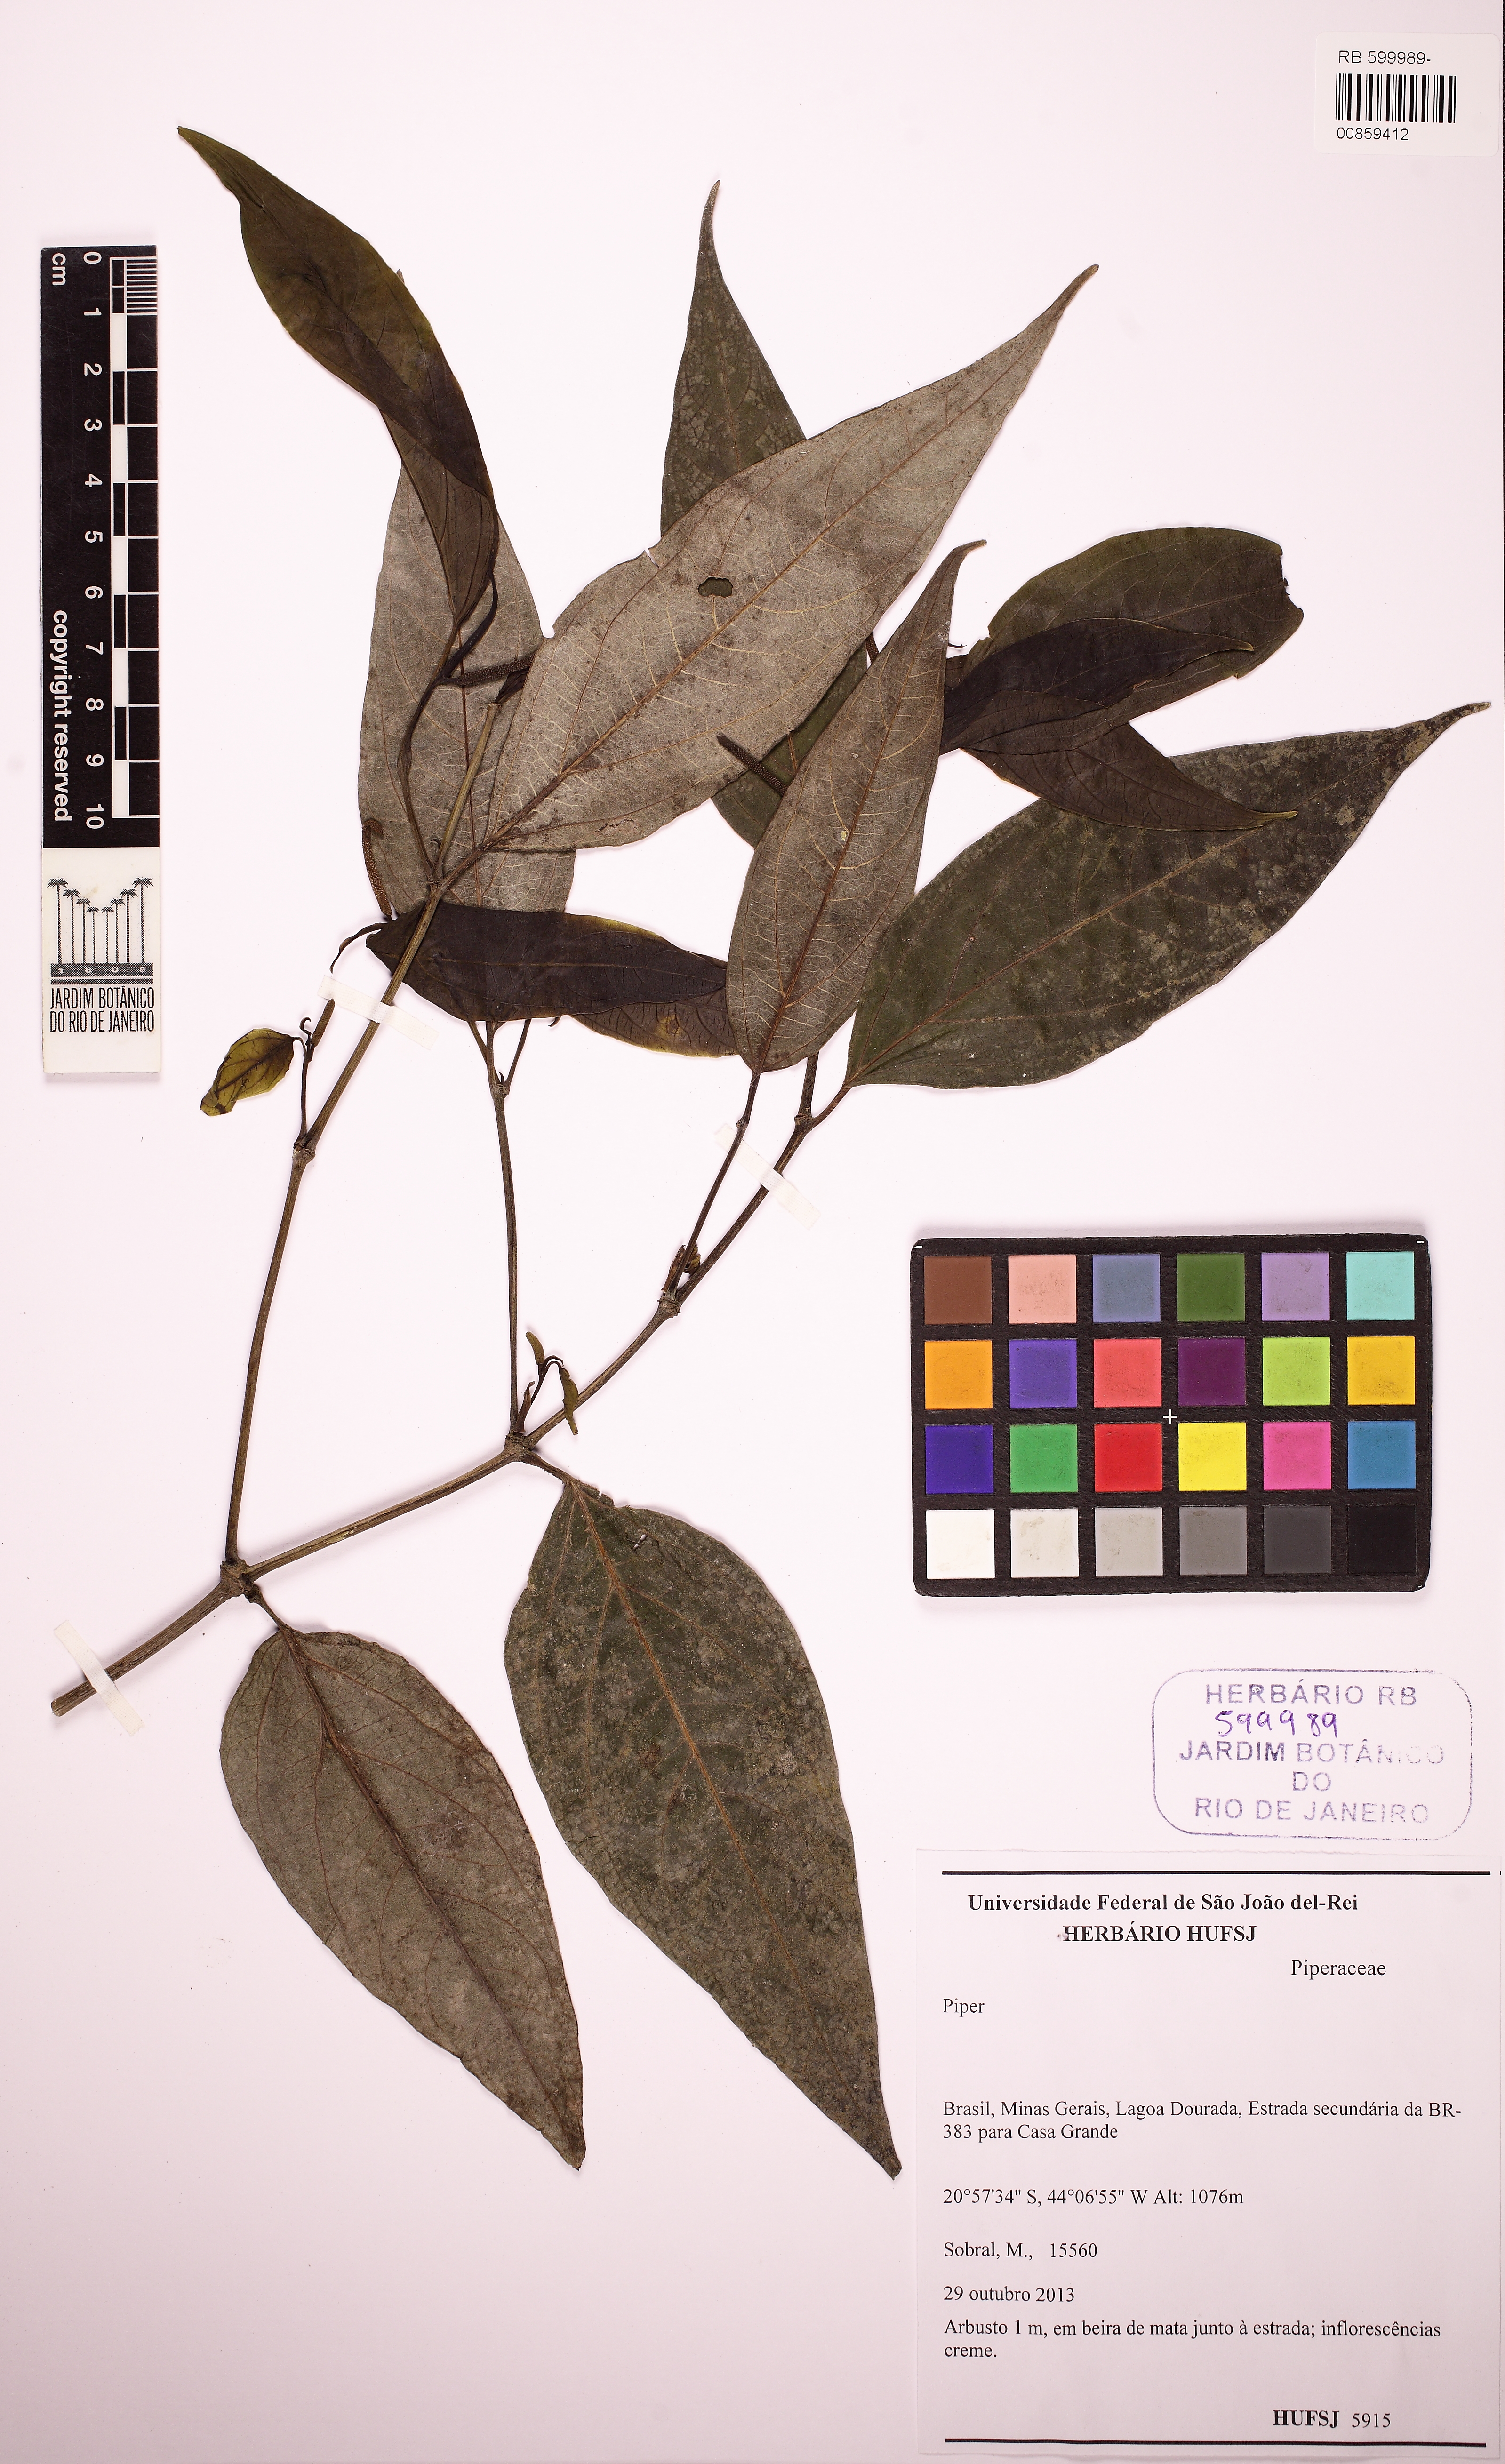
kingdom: Plantae
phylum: Tracheophyta
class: Magnoliopsida
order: Piperales
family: Piperaceae
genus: Piper
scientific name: Piper lepturum
